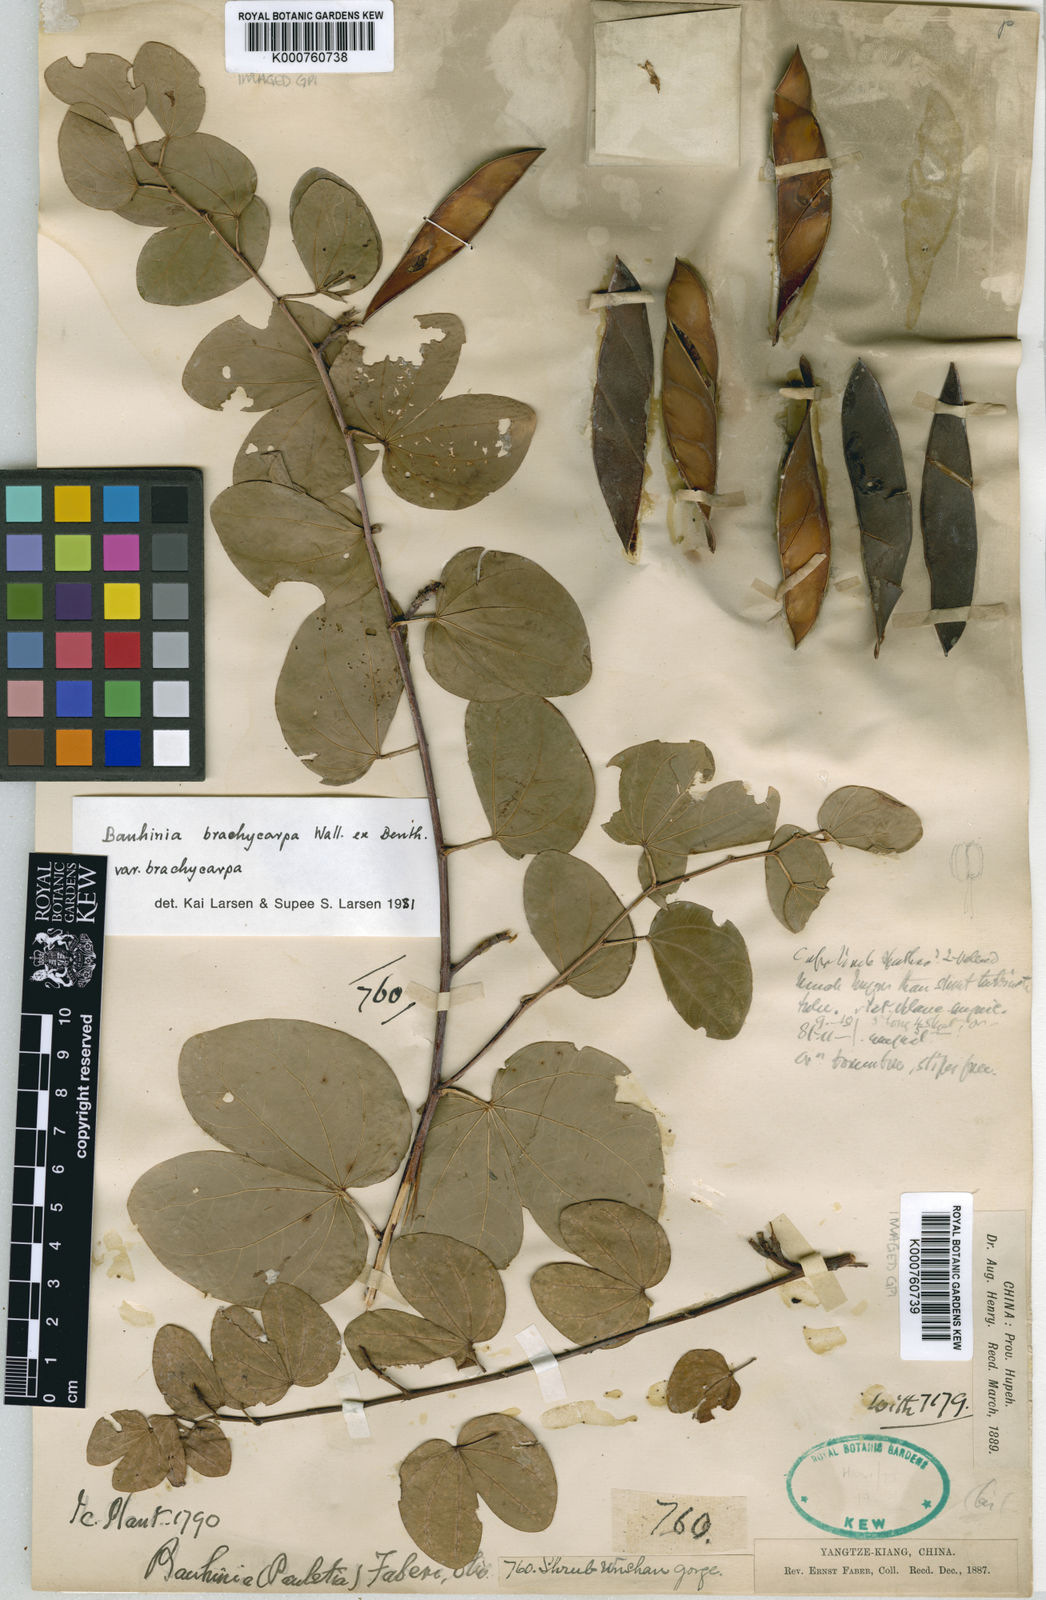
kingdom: Plantae
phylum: Tracheophyta
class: Magnoliopsida
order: Fabales
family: Fabaceae
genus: Bauhinia
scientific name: Bauhinia brachycarpa
